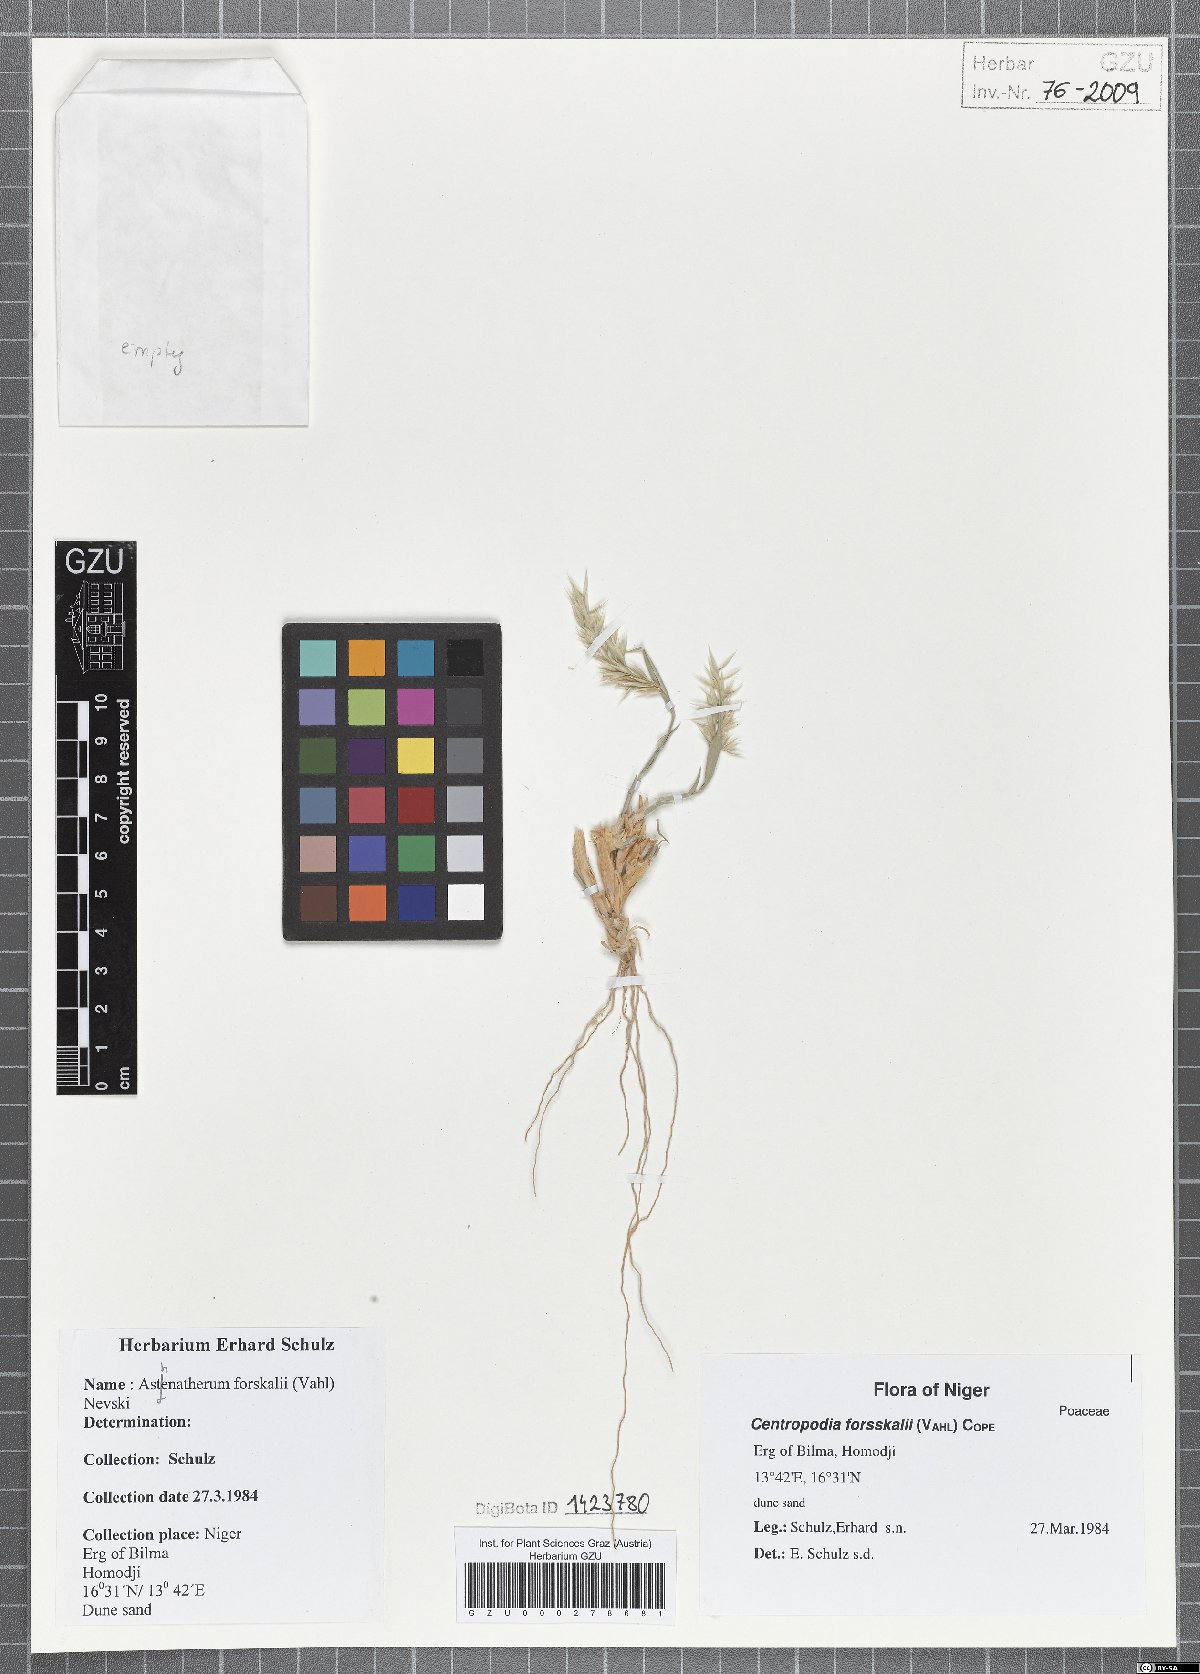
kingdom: Plantae
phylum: Tracheophyta
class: Liliopsida
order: Poales
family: Poaceae
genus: Centropodia
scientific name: Centropodia forsskalii
